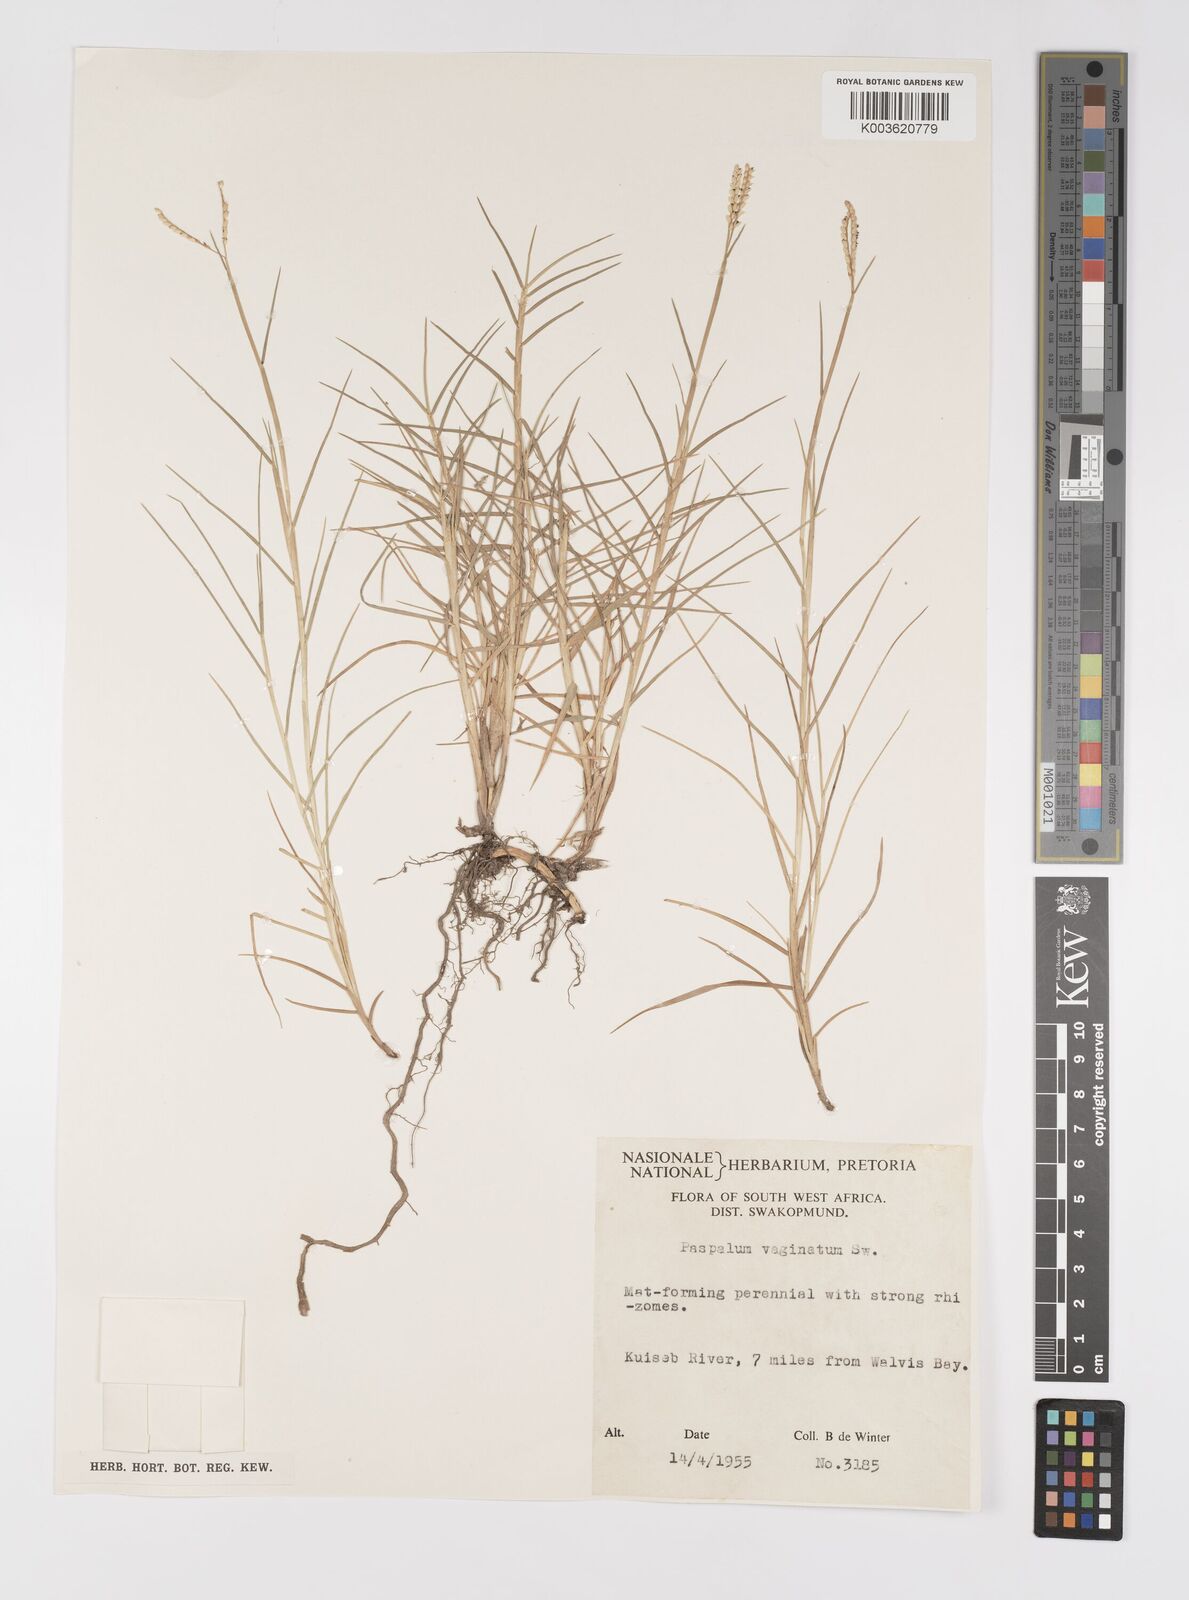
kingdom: Plantae
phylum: Tracheophyta
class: Liliopsida
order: Poales
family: Poaceae
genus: Paspalum
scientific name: Paspalum vaginatum
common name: Seashore paspalum
